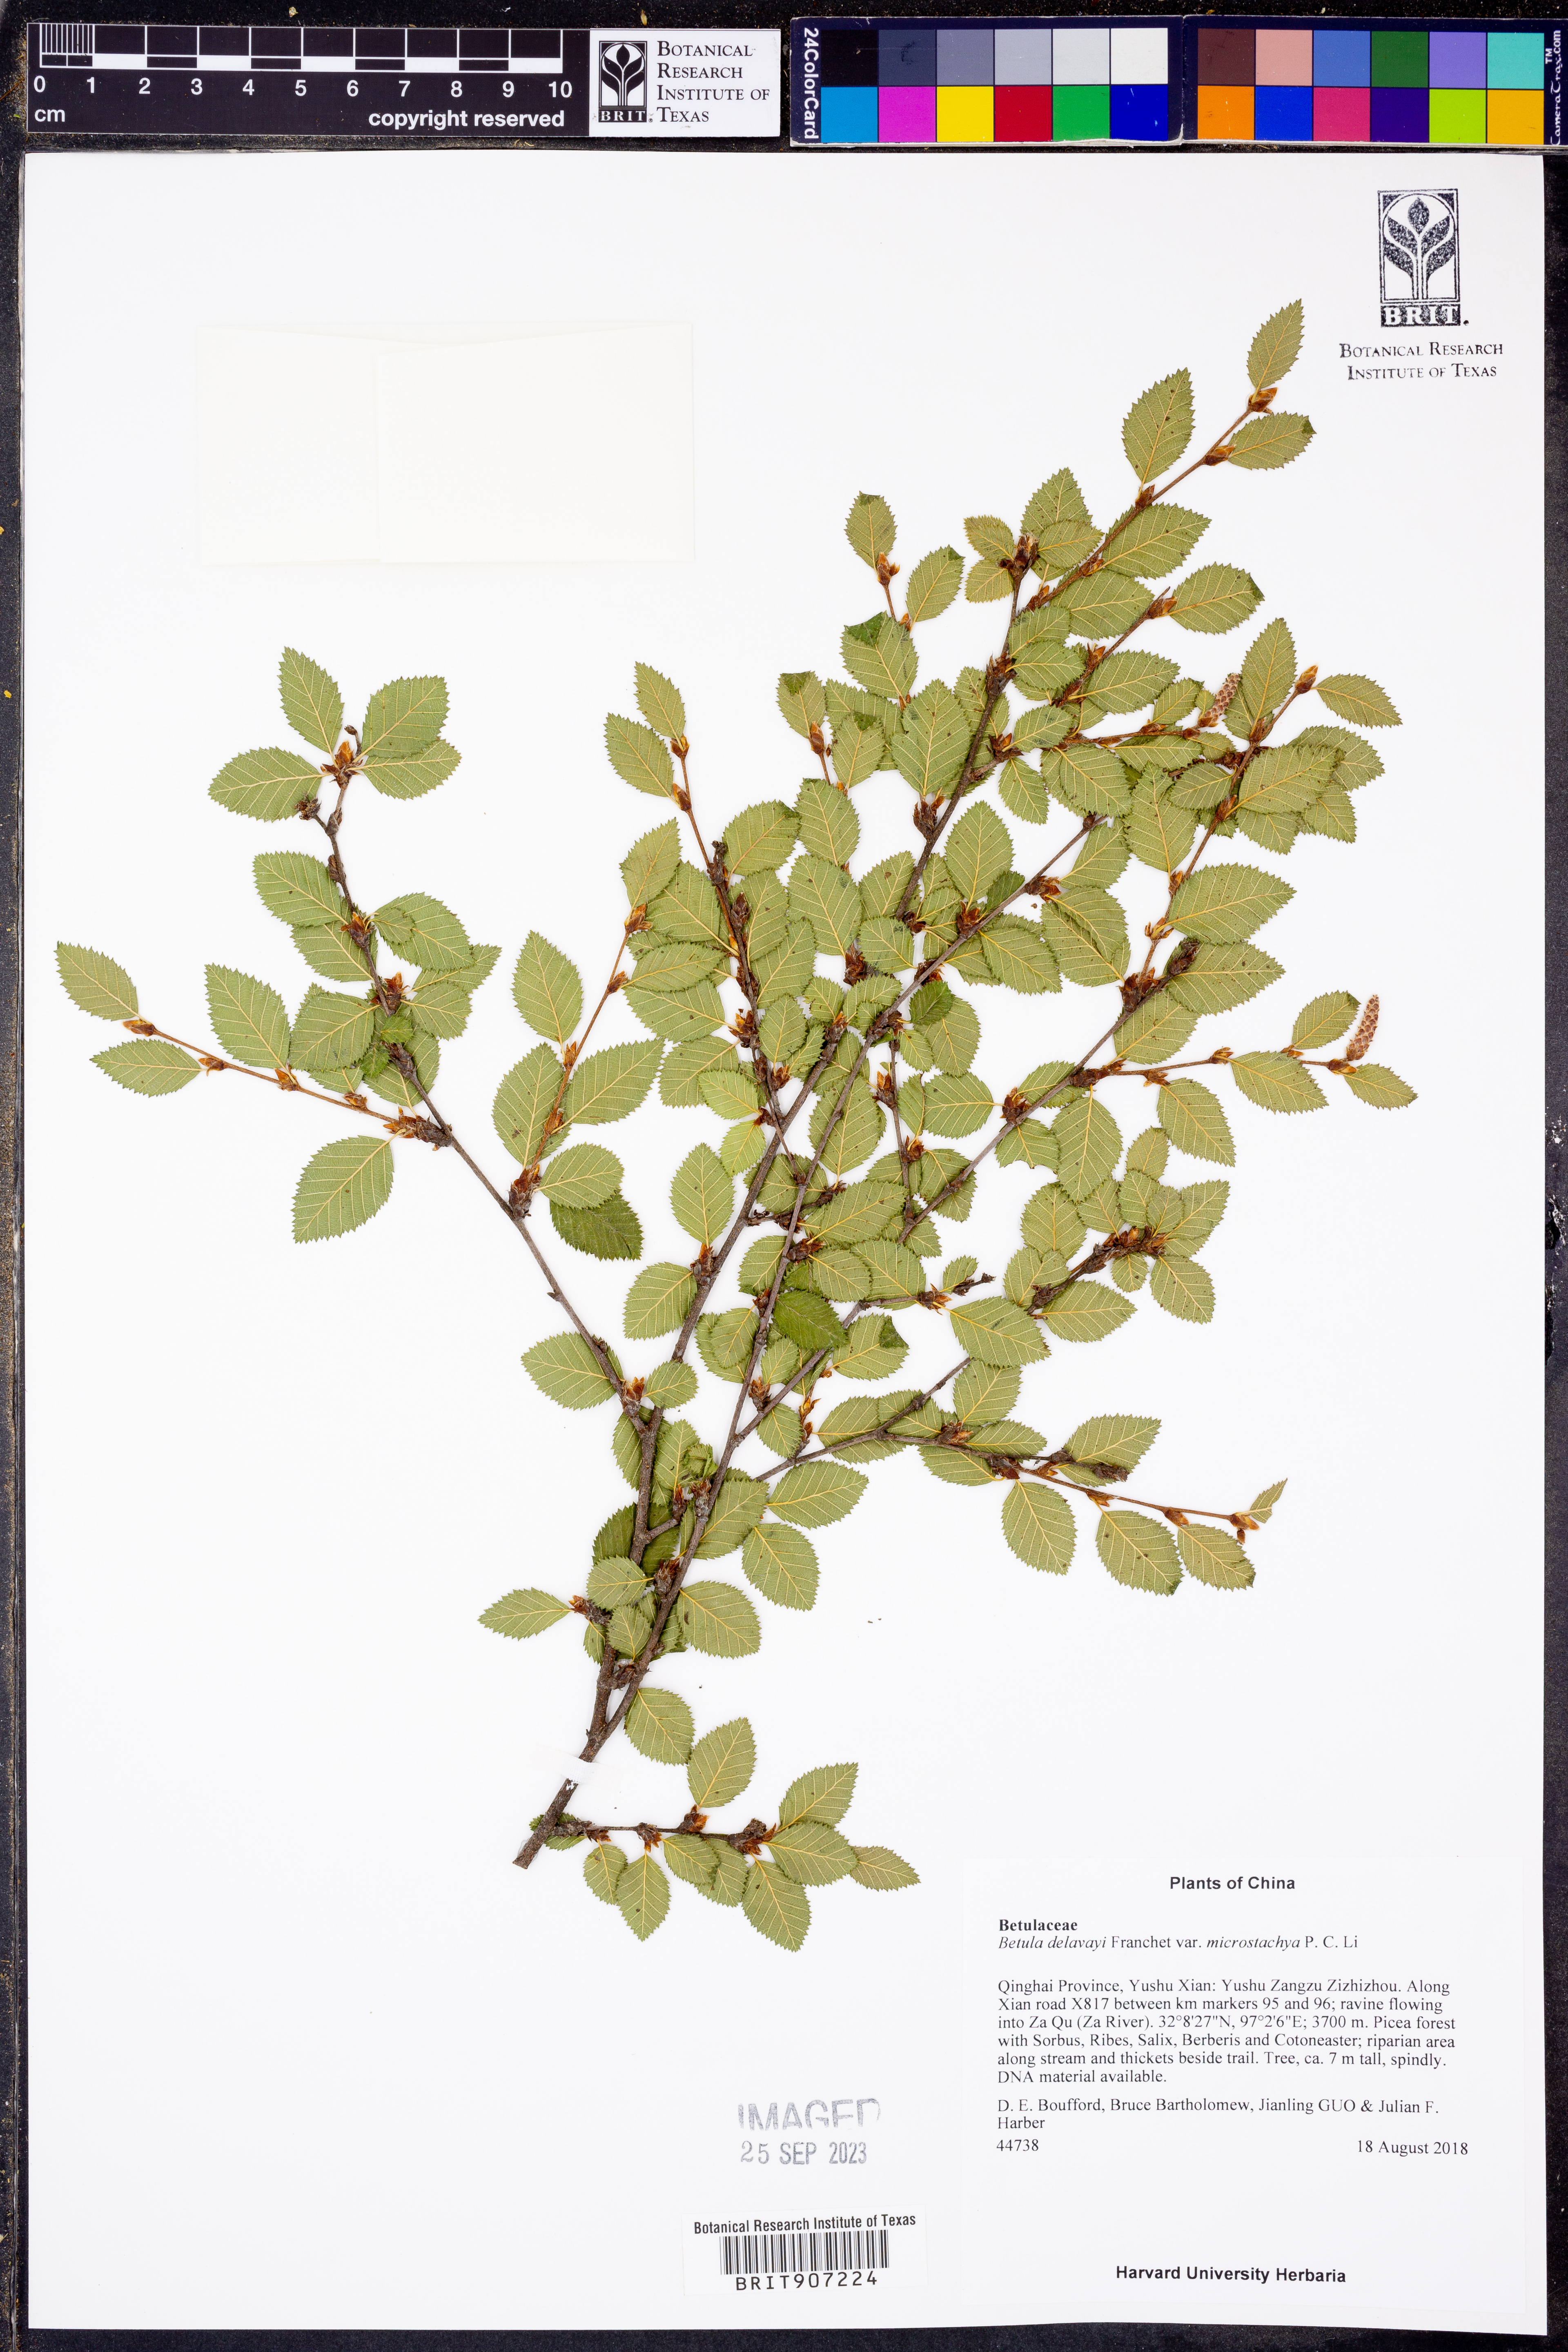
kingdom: Plantae
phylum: Tracheophyta
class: Magnoliopsida
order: Fagales
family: Betulaceae
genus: Betula
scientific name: Betula delavayi
